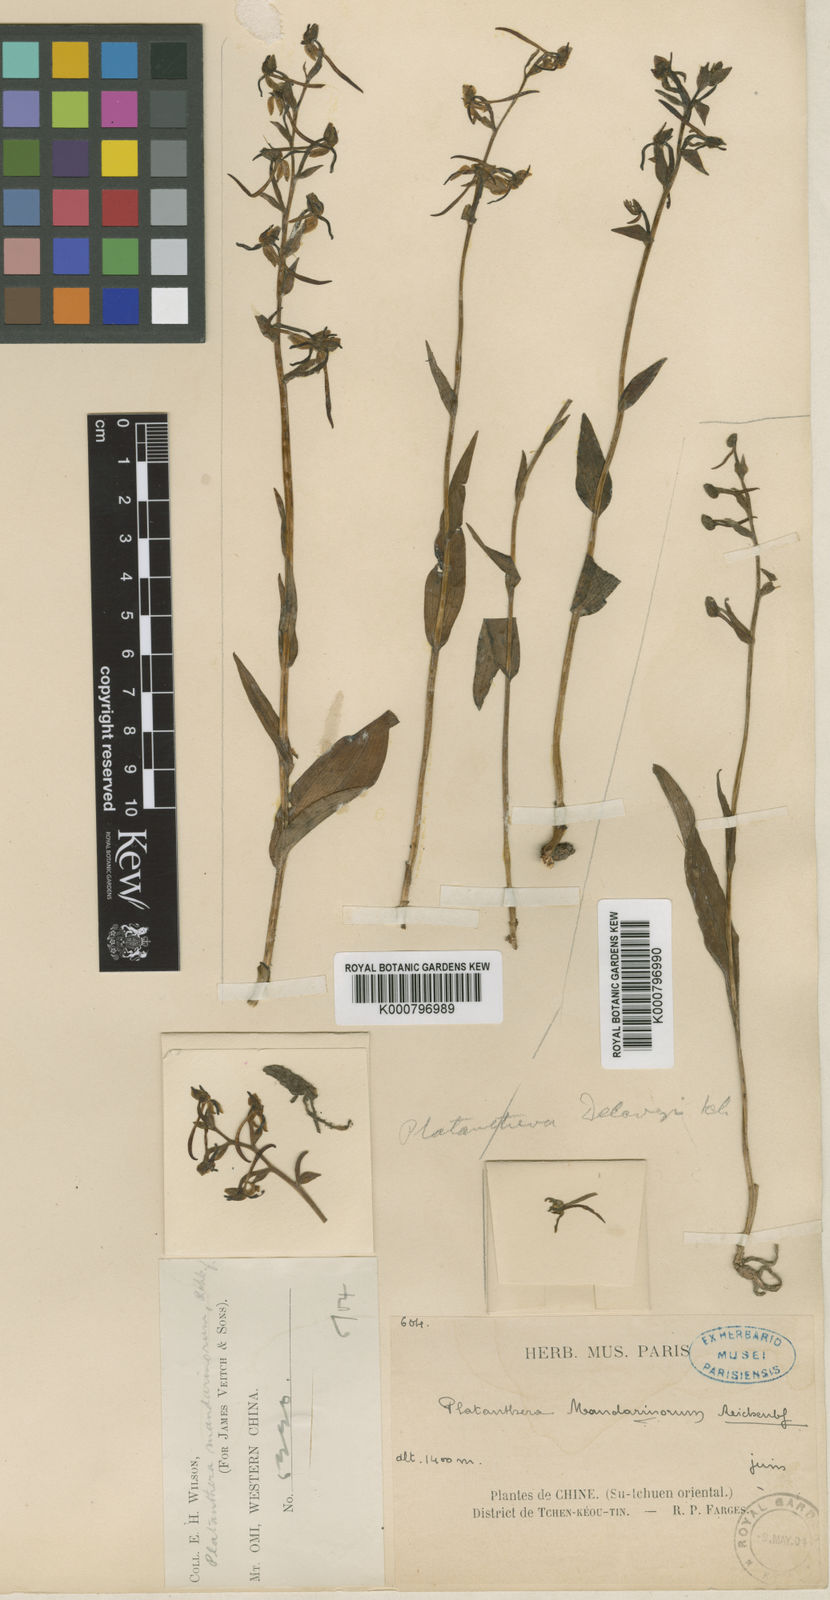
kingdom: Plantae
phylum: Tracheophyta
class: Liliopsida
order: Asparagales
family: Orchidaceae
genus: Platanthera
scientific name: Platanthera mandarinorum
